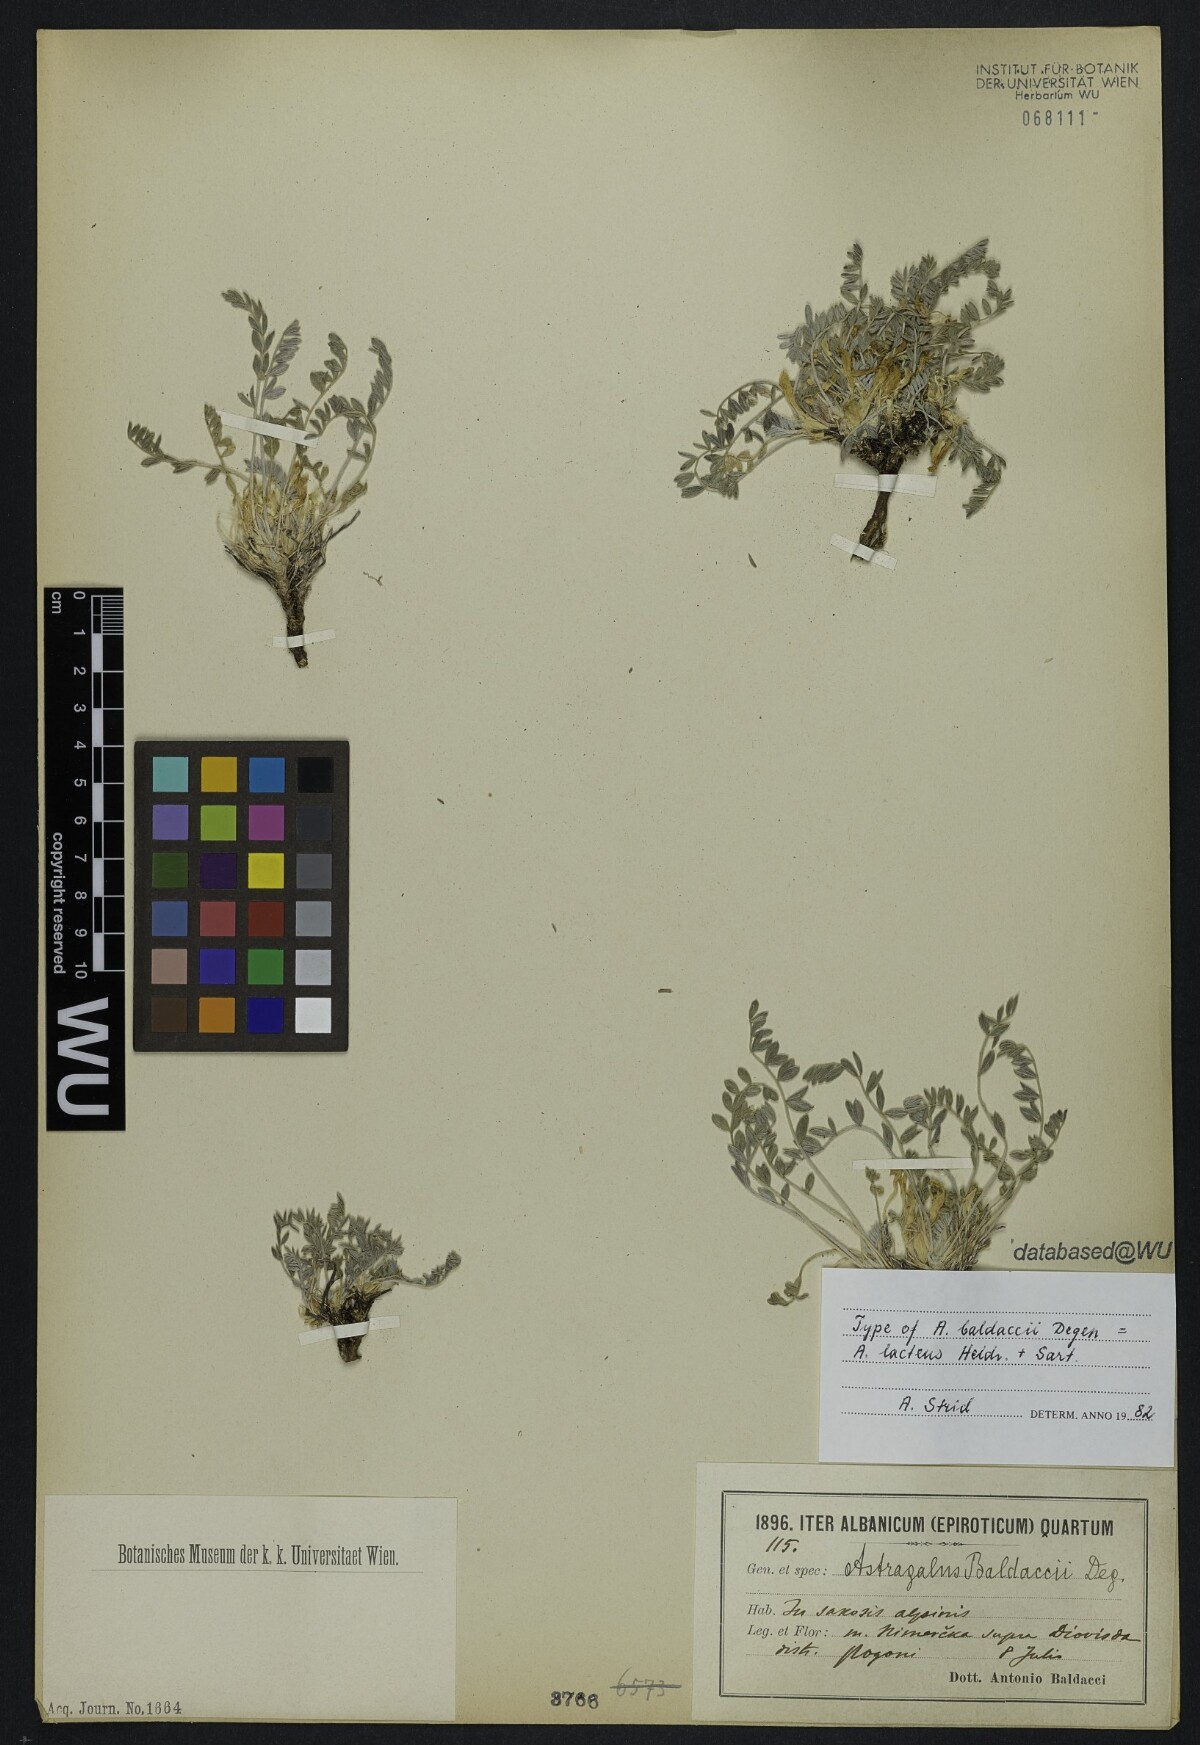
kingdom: Plantae
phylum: Tracheophyta
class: Magnoliopsida
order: Fabales
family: Fabaceae
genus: Astragalus
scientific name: Astragalus baldaccii
